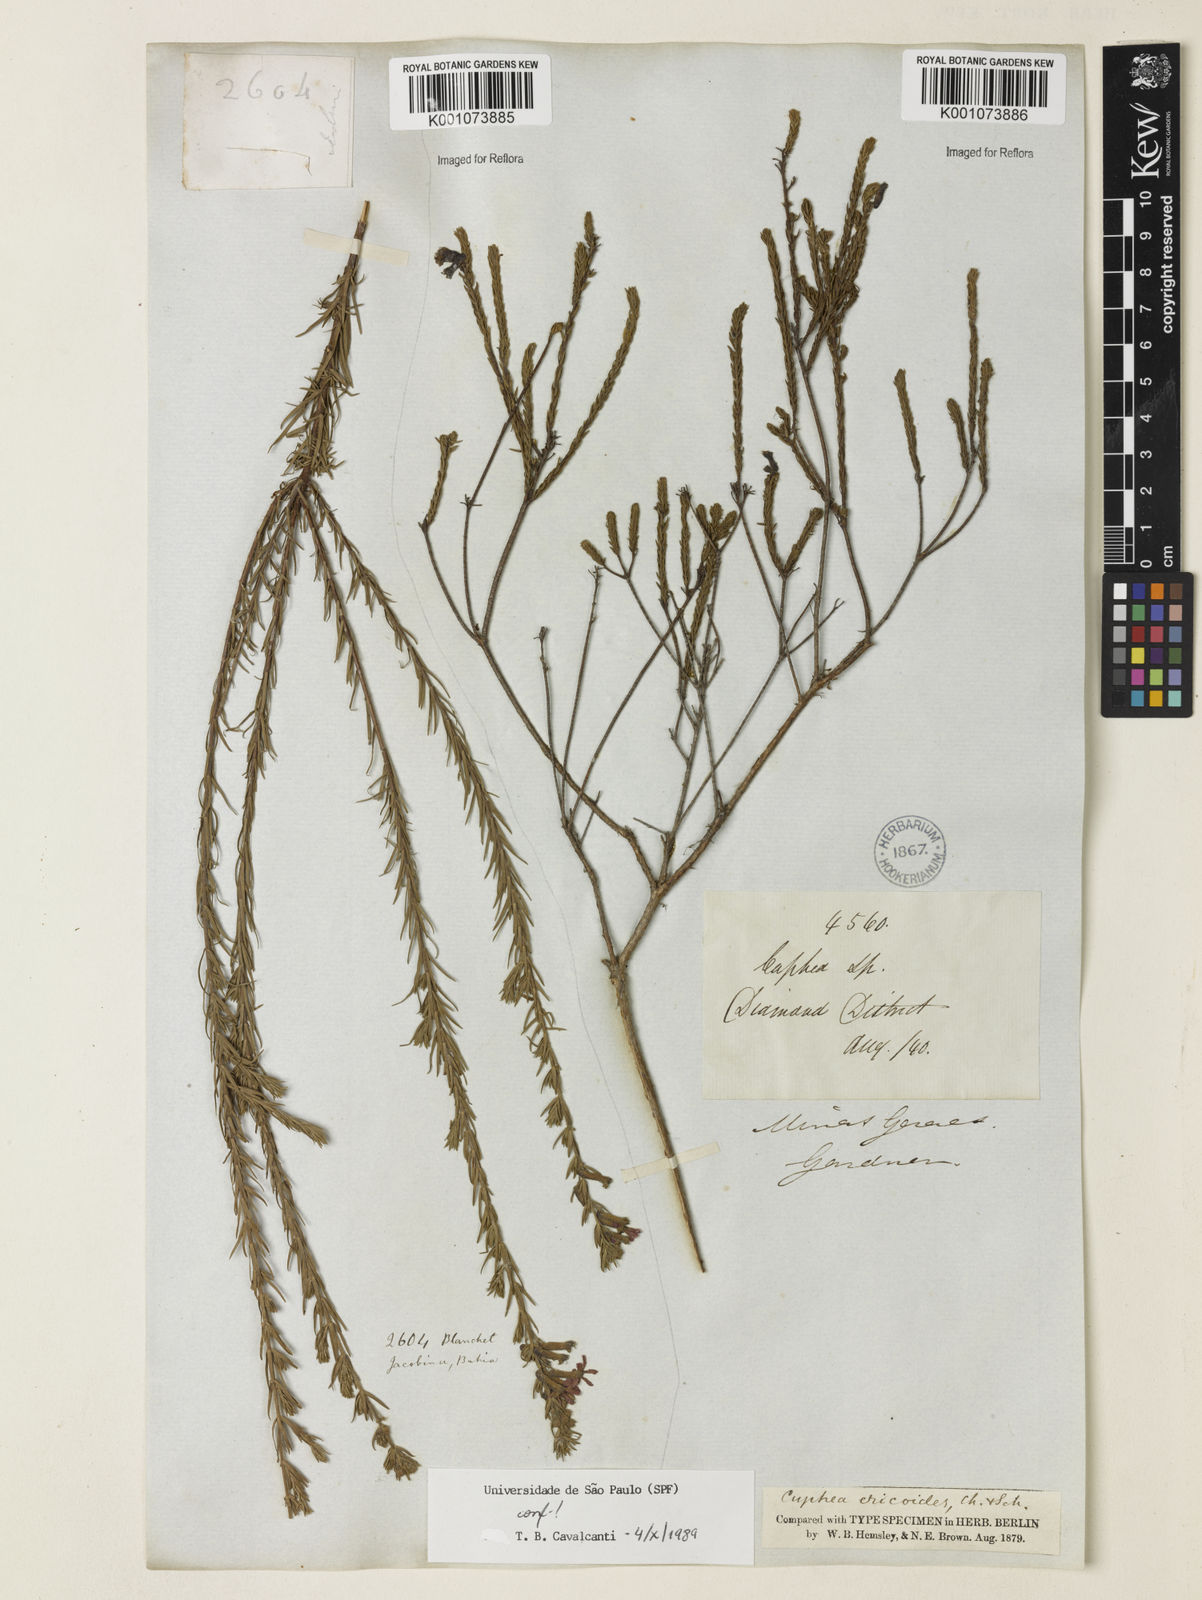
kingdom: Plantae
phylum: Tracheophyta
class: Magnoliopsida
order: Myrtales
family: Lythraceae
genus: Cuphea
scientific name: Cuphea ericoides
